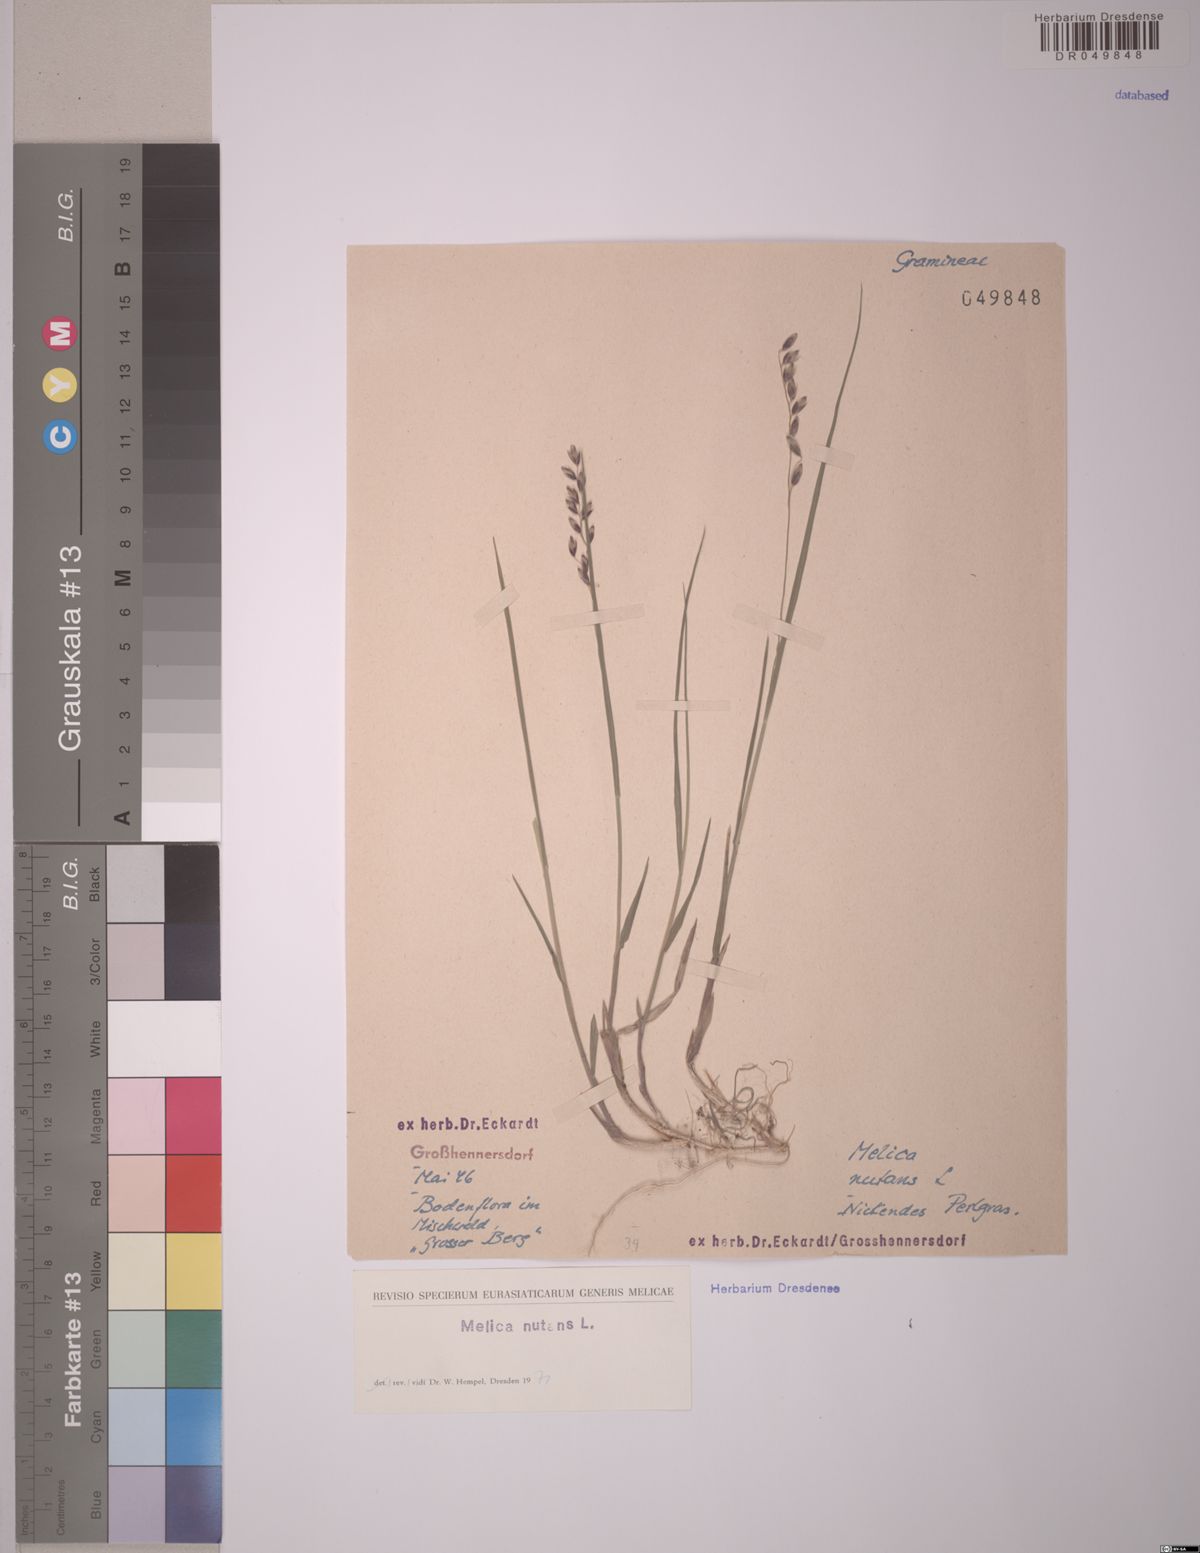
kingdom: Plantae
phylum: Tracheophyta
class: Liliopsida
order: Poales
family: Poaceae
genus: Melica
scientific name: Melica nutans
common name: Mountain melick
